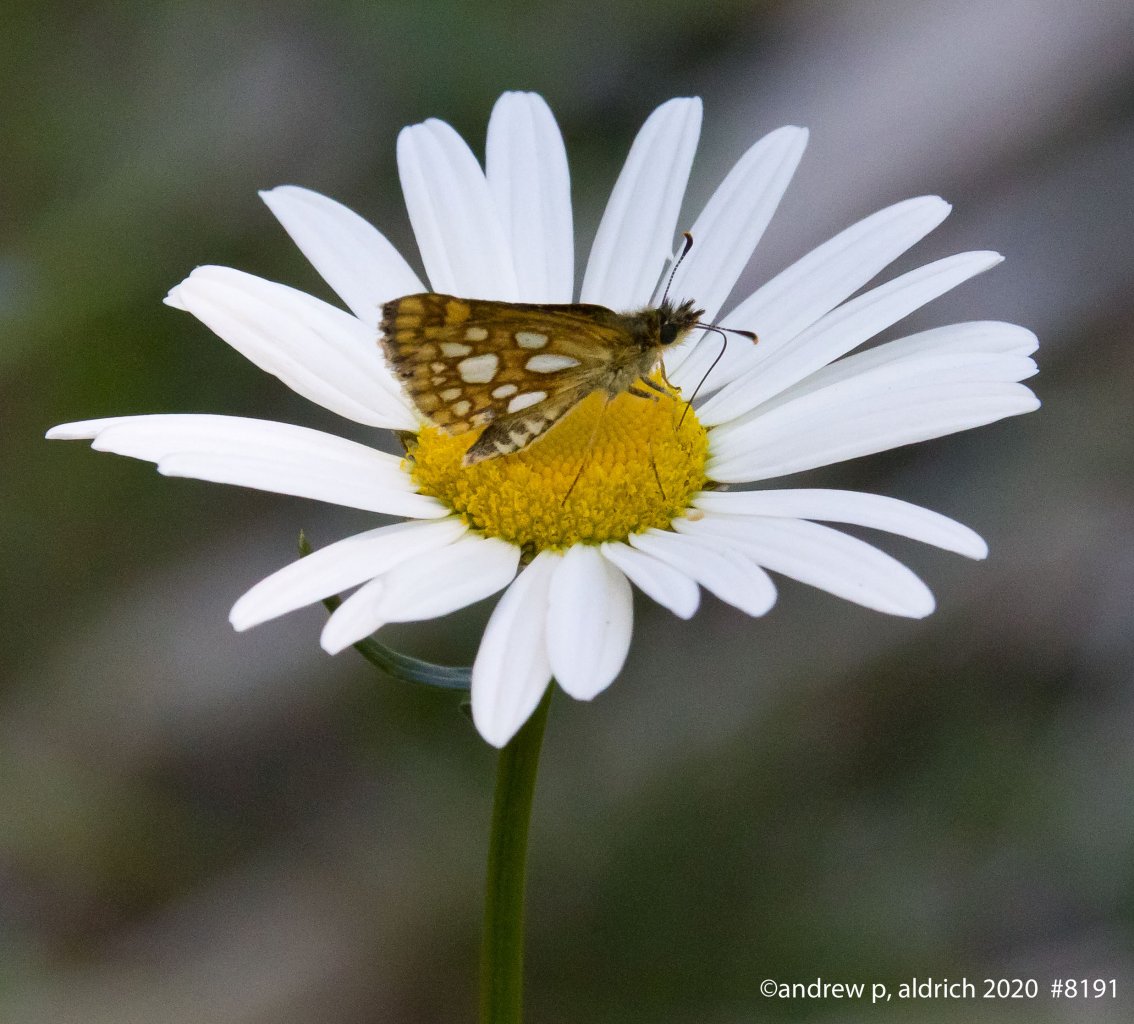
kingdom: Animalia
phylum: Arthropoda
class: Insecta
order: Lepidoptera
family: Hesperiidae
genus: Carterocephalus
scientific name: Carterocephalus palaemon
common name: Chequered Skipper
